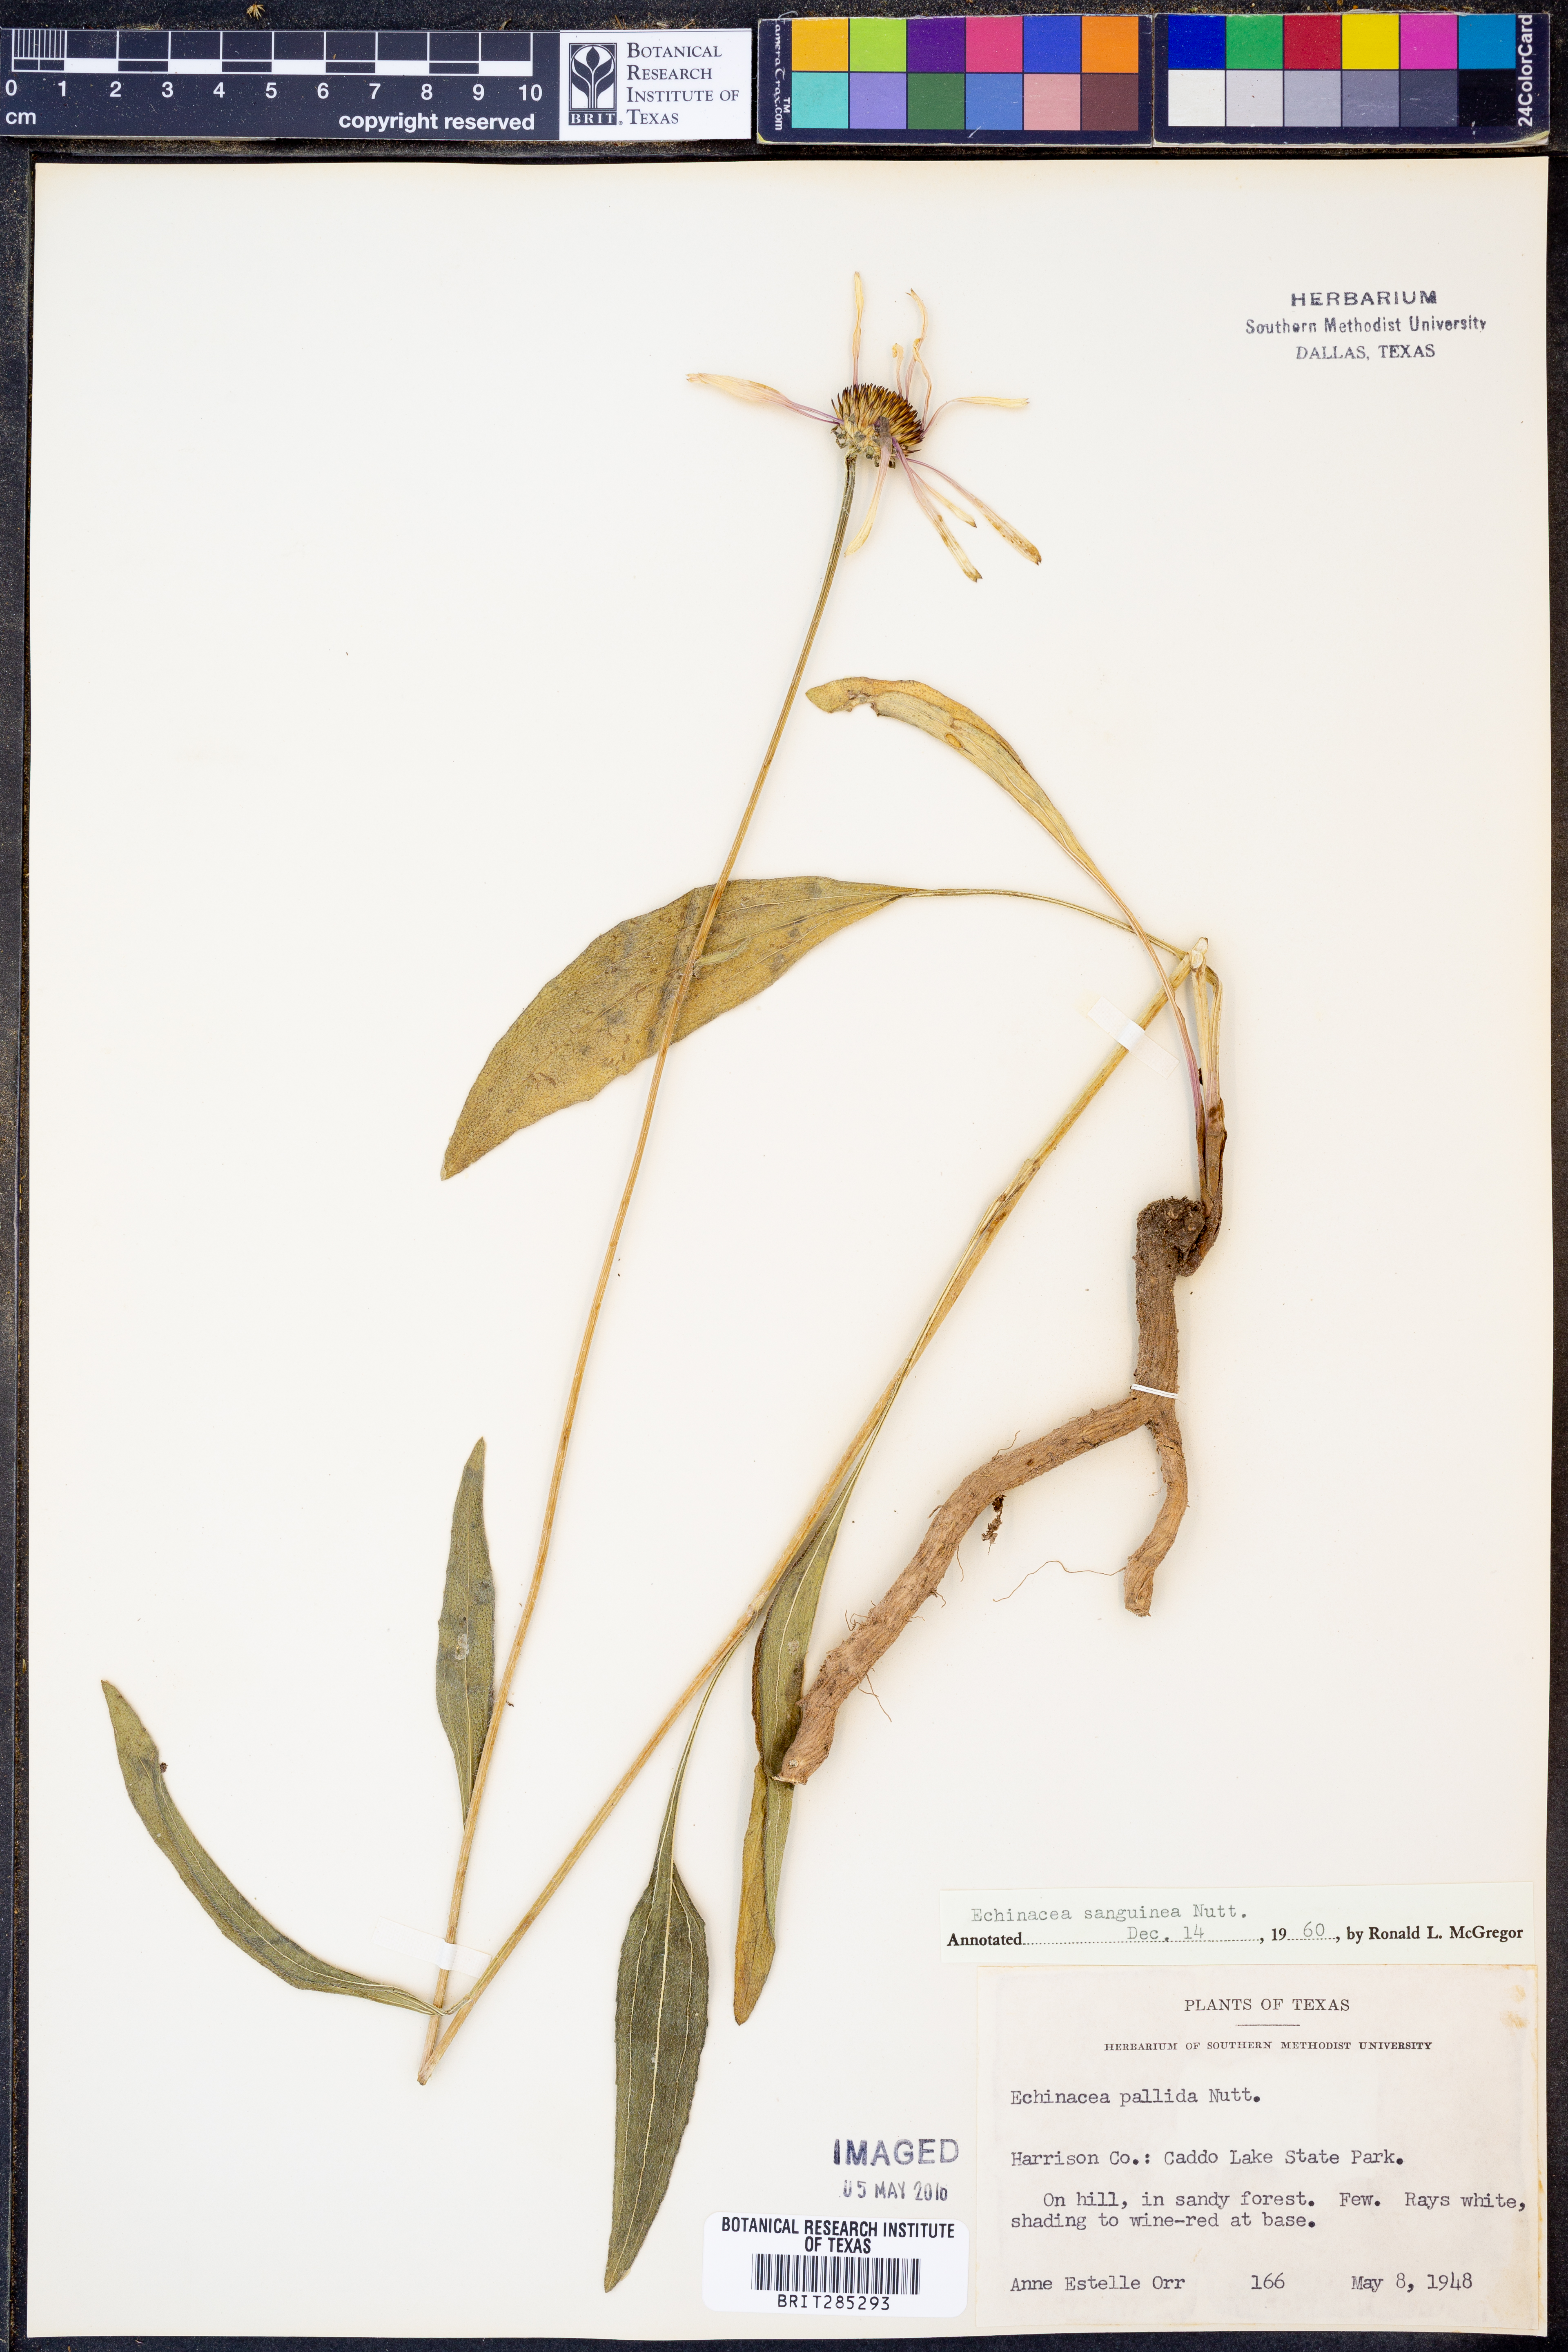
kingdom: Plantae
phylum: Tracheophyta
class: Magnoliopsida
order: Asterales
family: Asteraceae
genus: Echinacea
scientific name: Echinacea sanguinea
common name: Sanguine purple-coneflower
